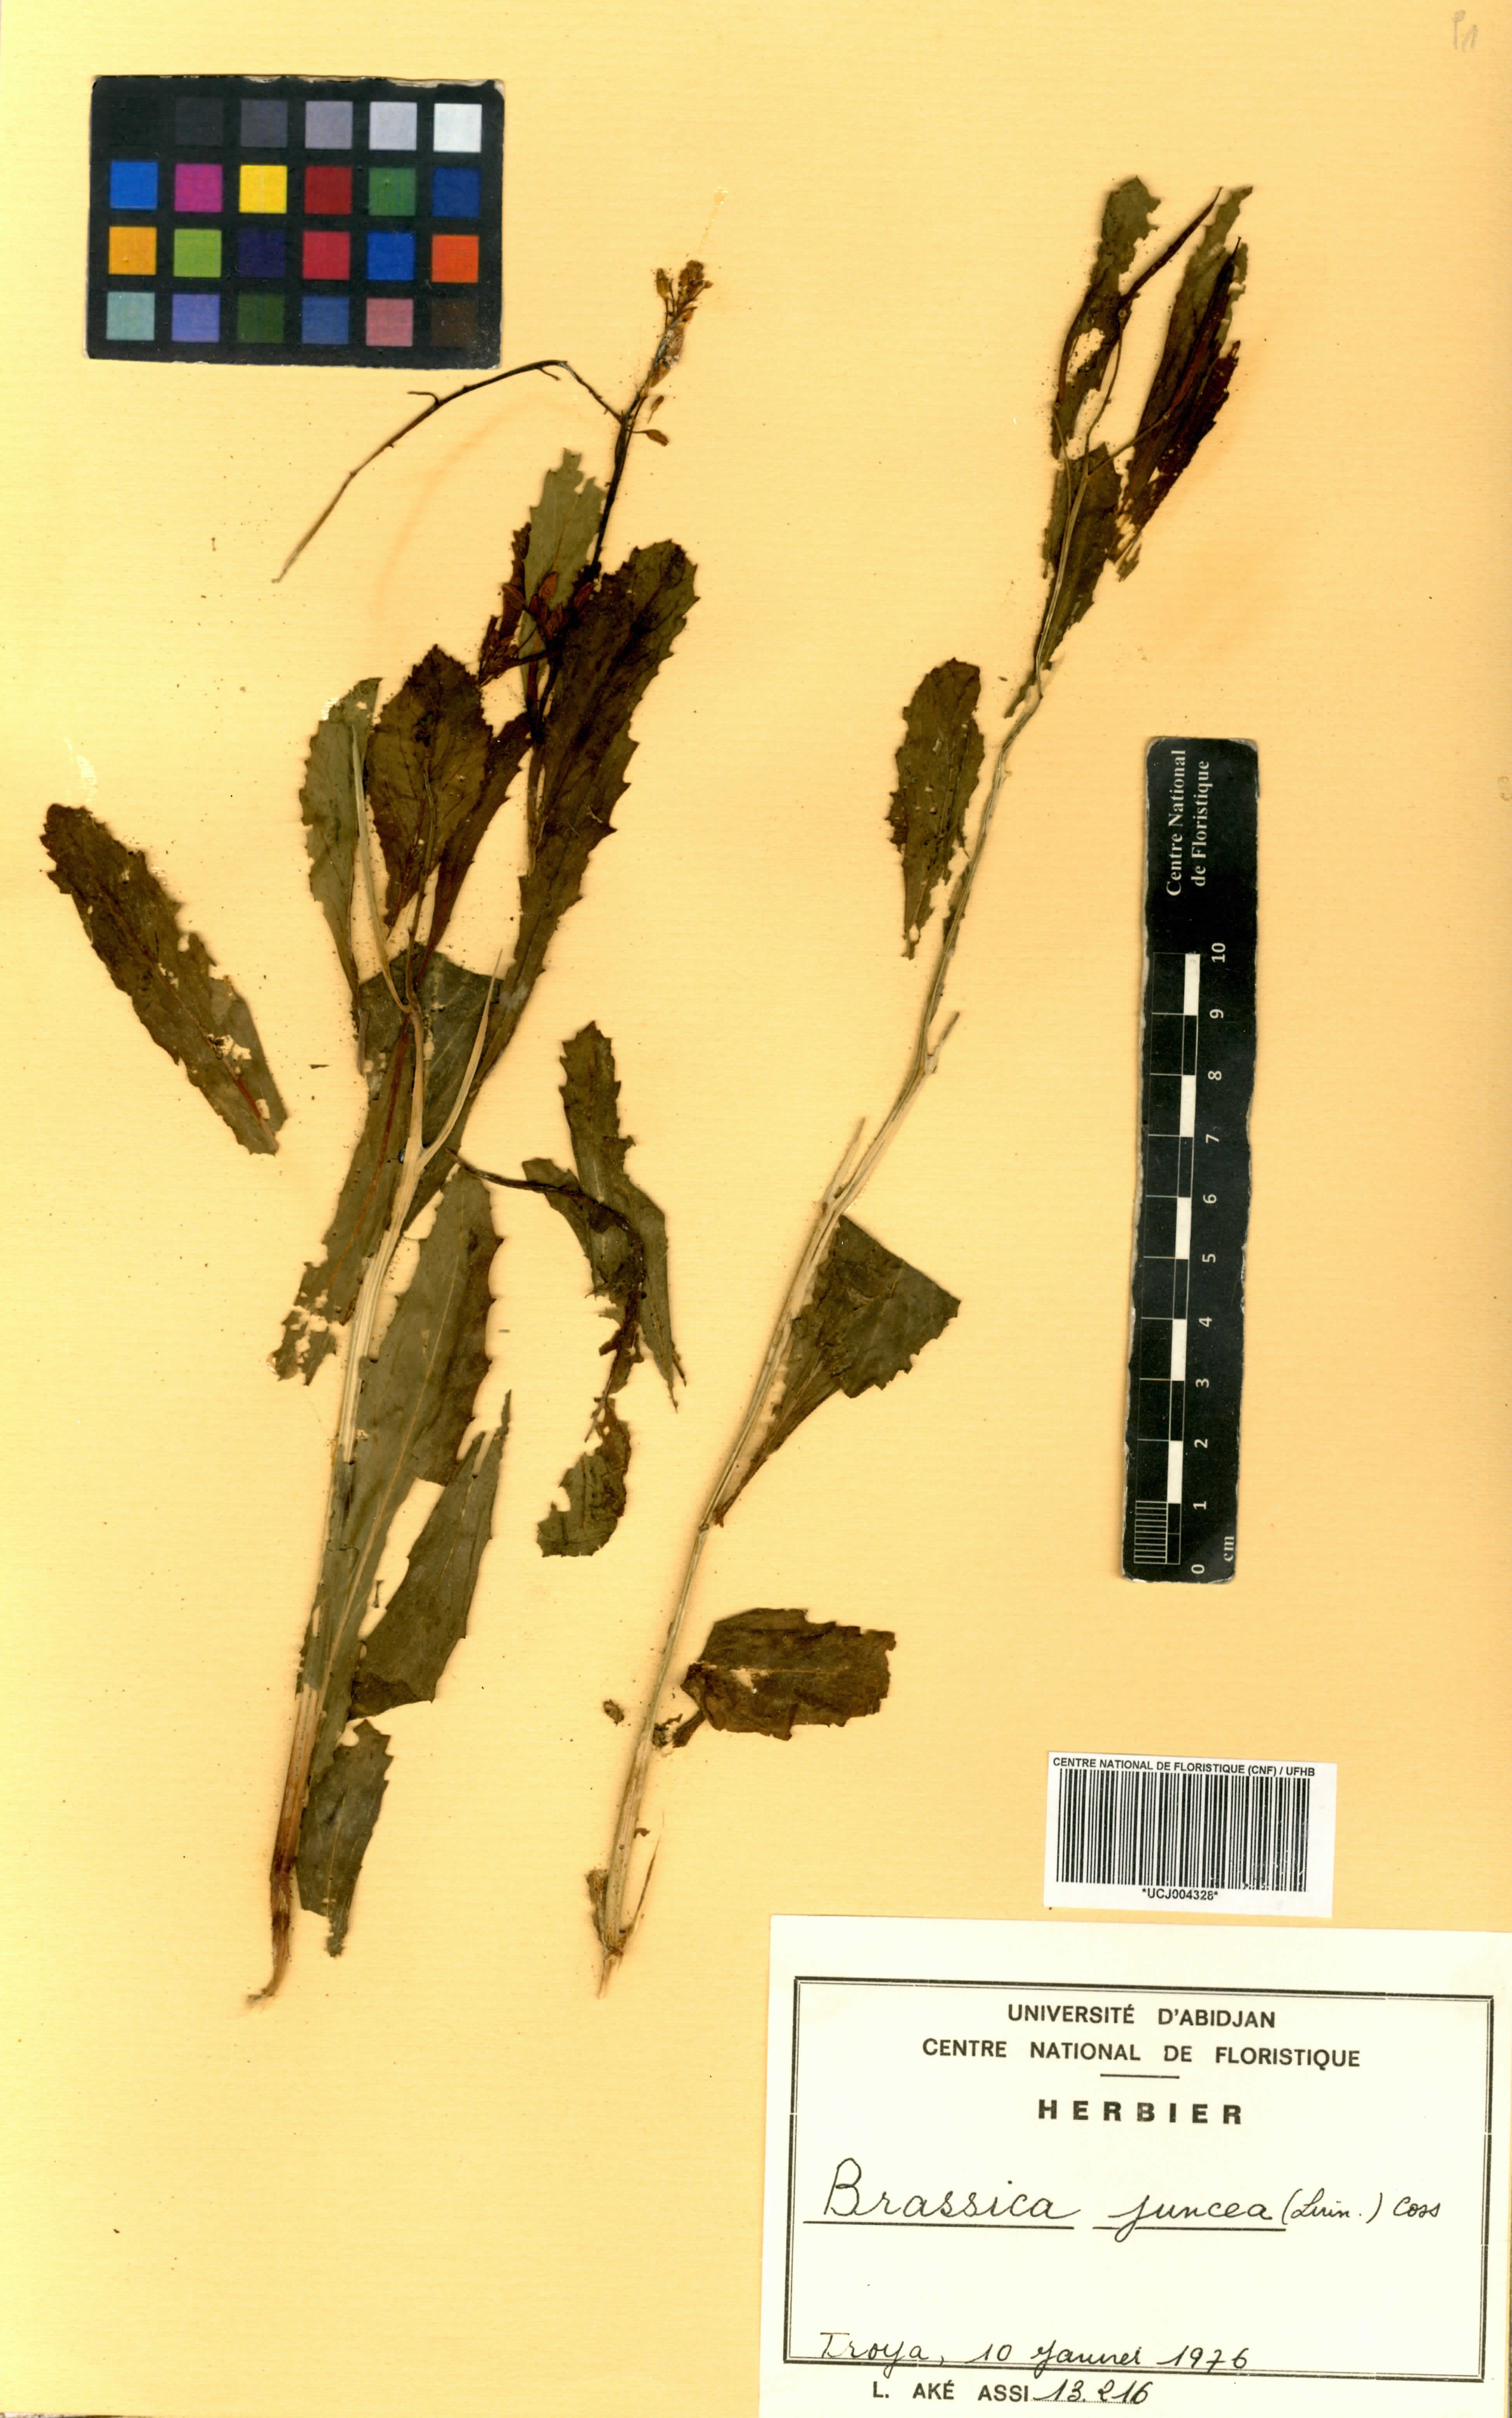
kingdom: Plantae
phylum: Tracheophyta
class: Magnoliopsida
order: Brassicales
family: Brassicaceae
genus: Brassica
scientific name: Brassica juncea
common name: Brown mustard
